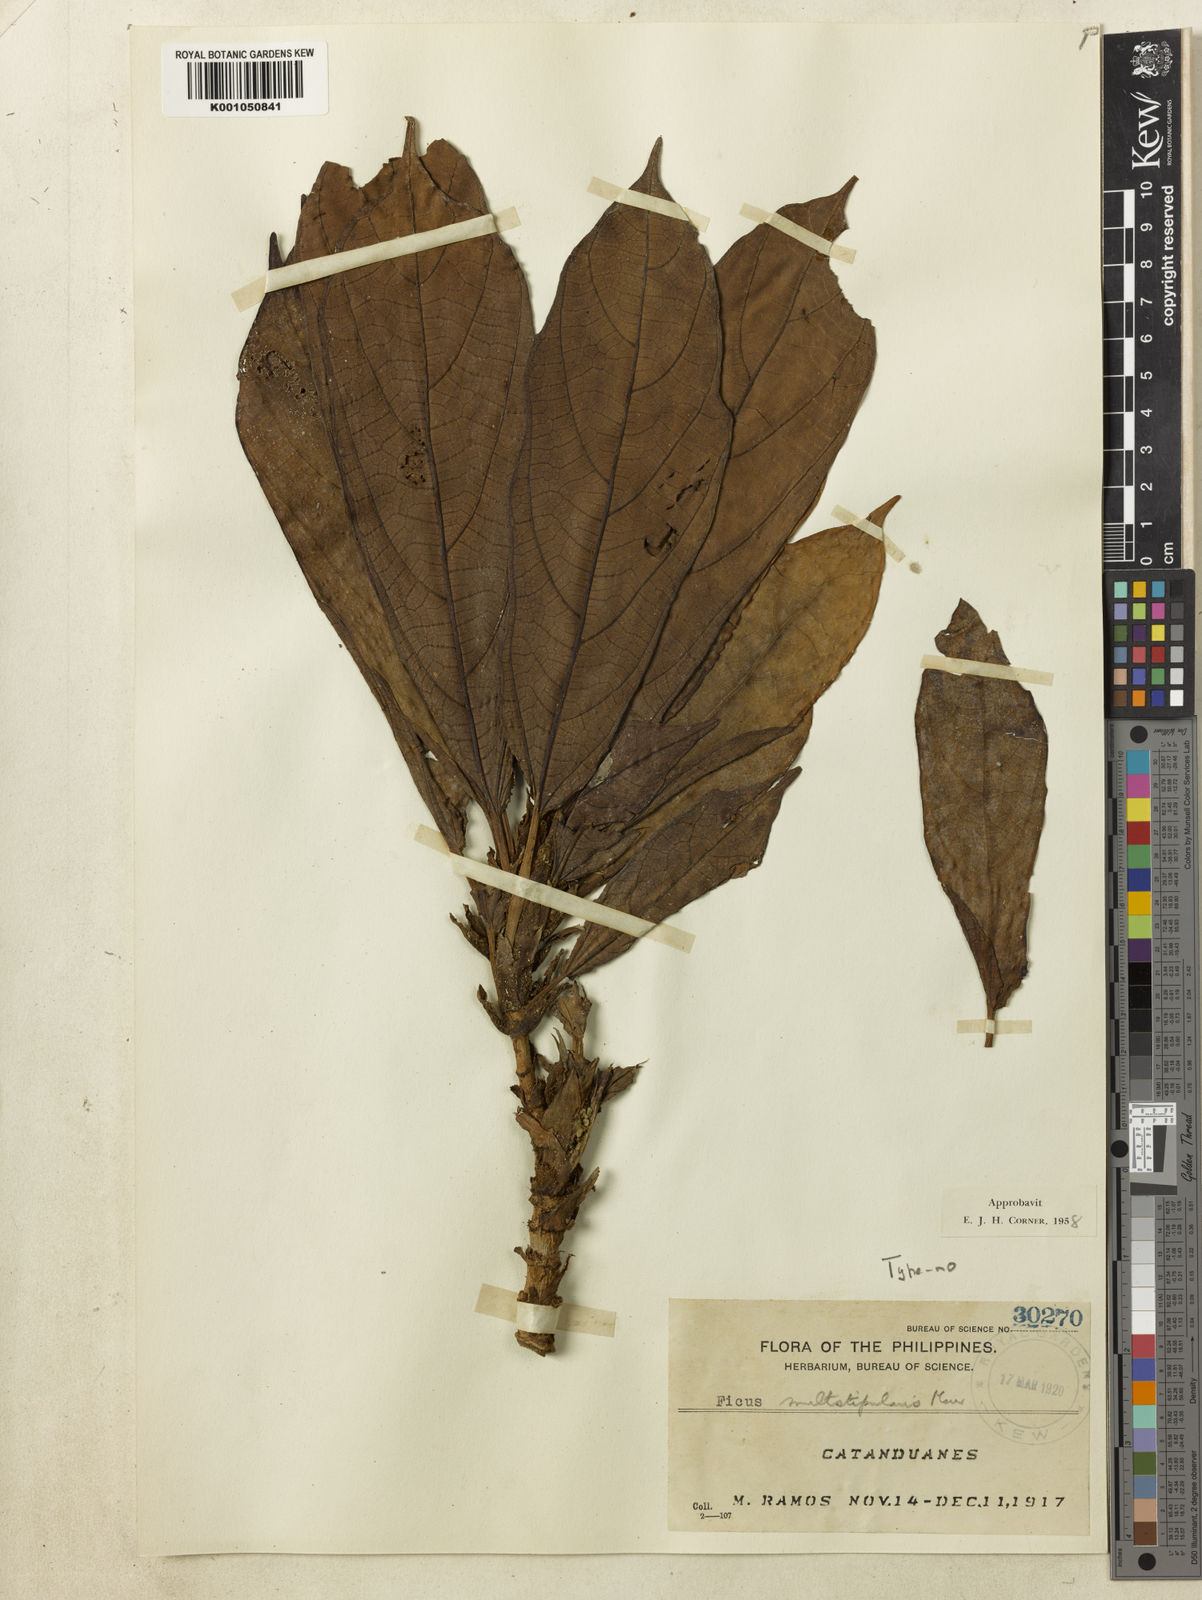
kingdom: Plantae
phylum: Tracheophyta
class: Magnoliopsida
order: Rosales
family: Moraceae
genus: Ficus
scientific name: Ficus carpenteriana
